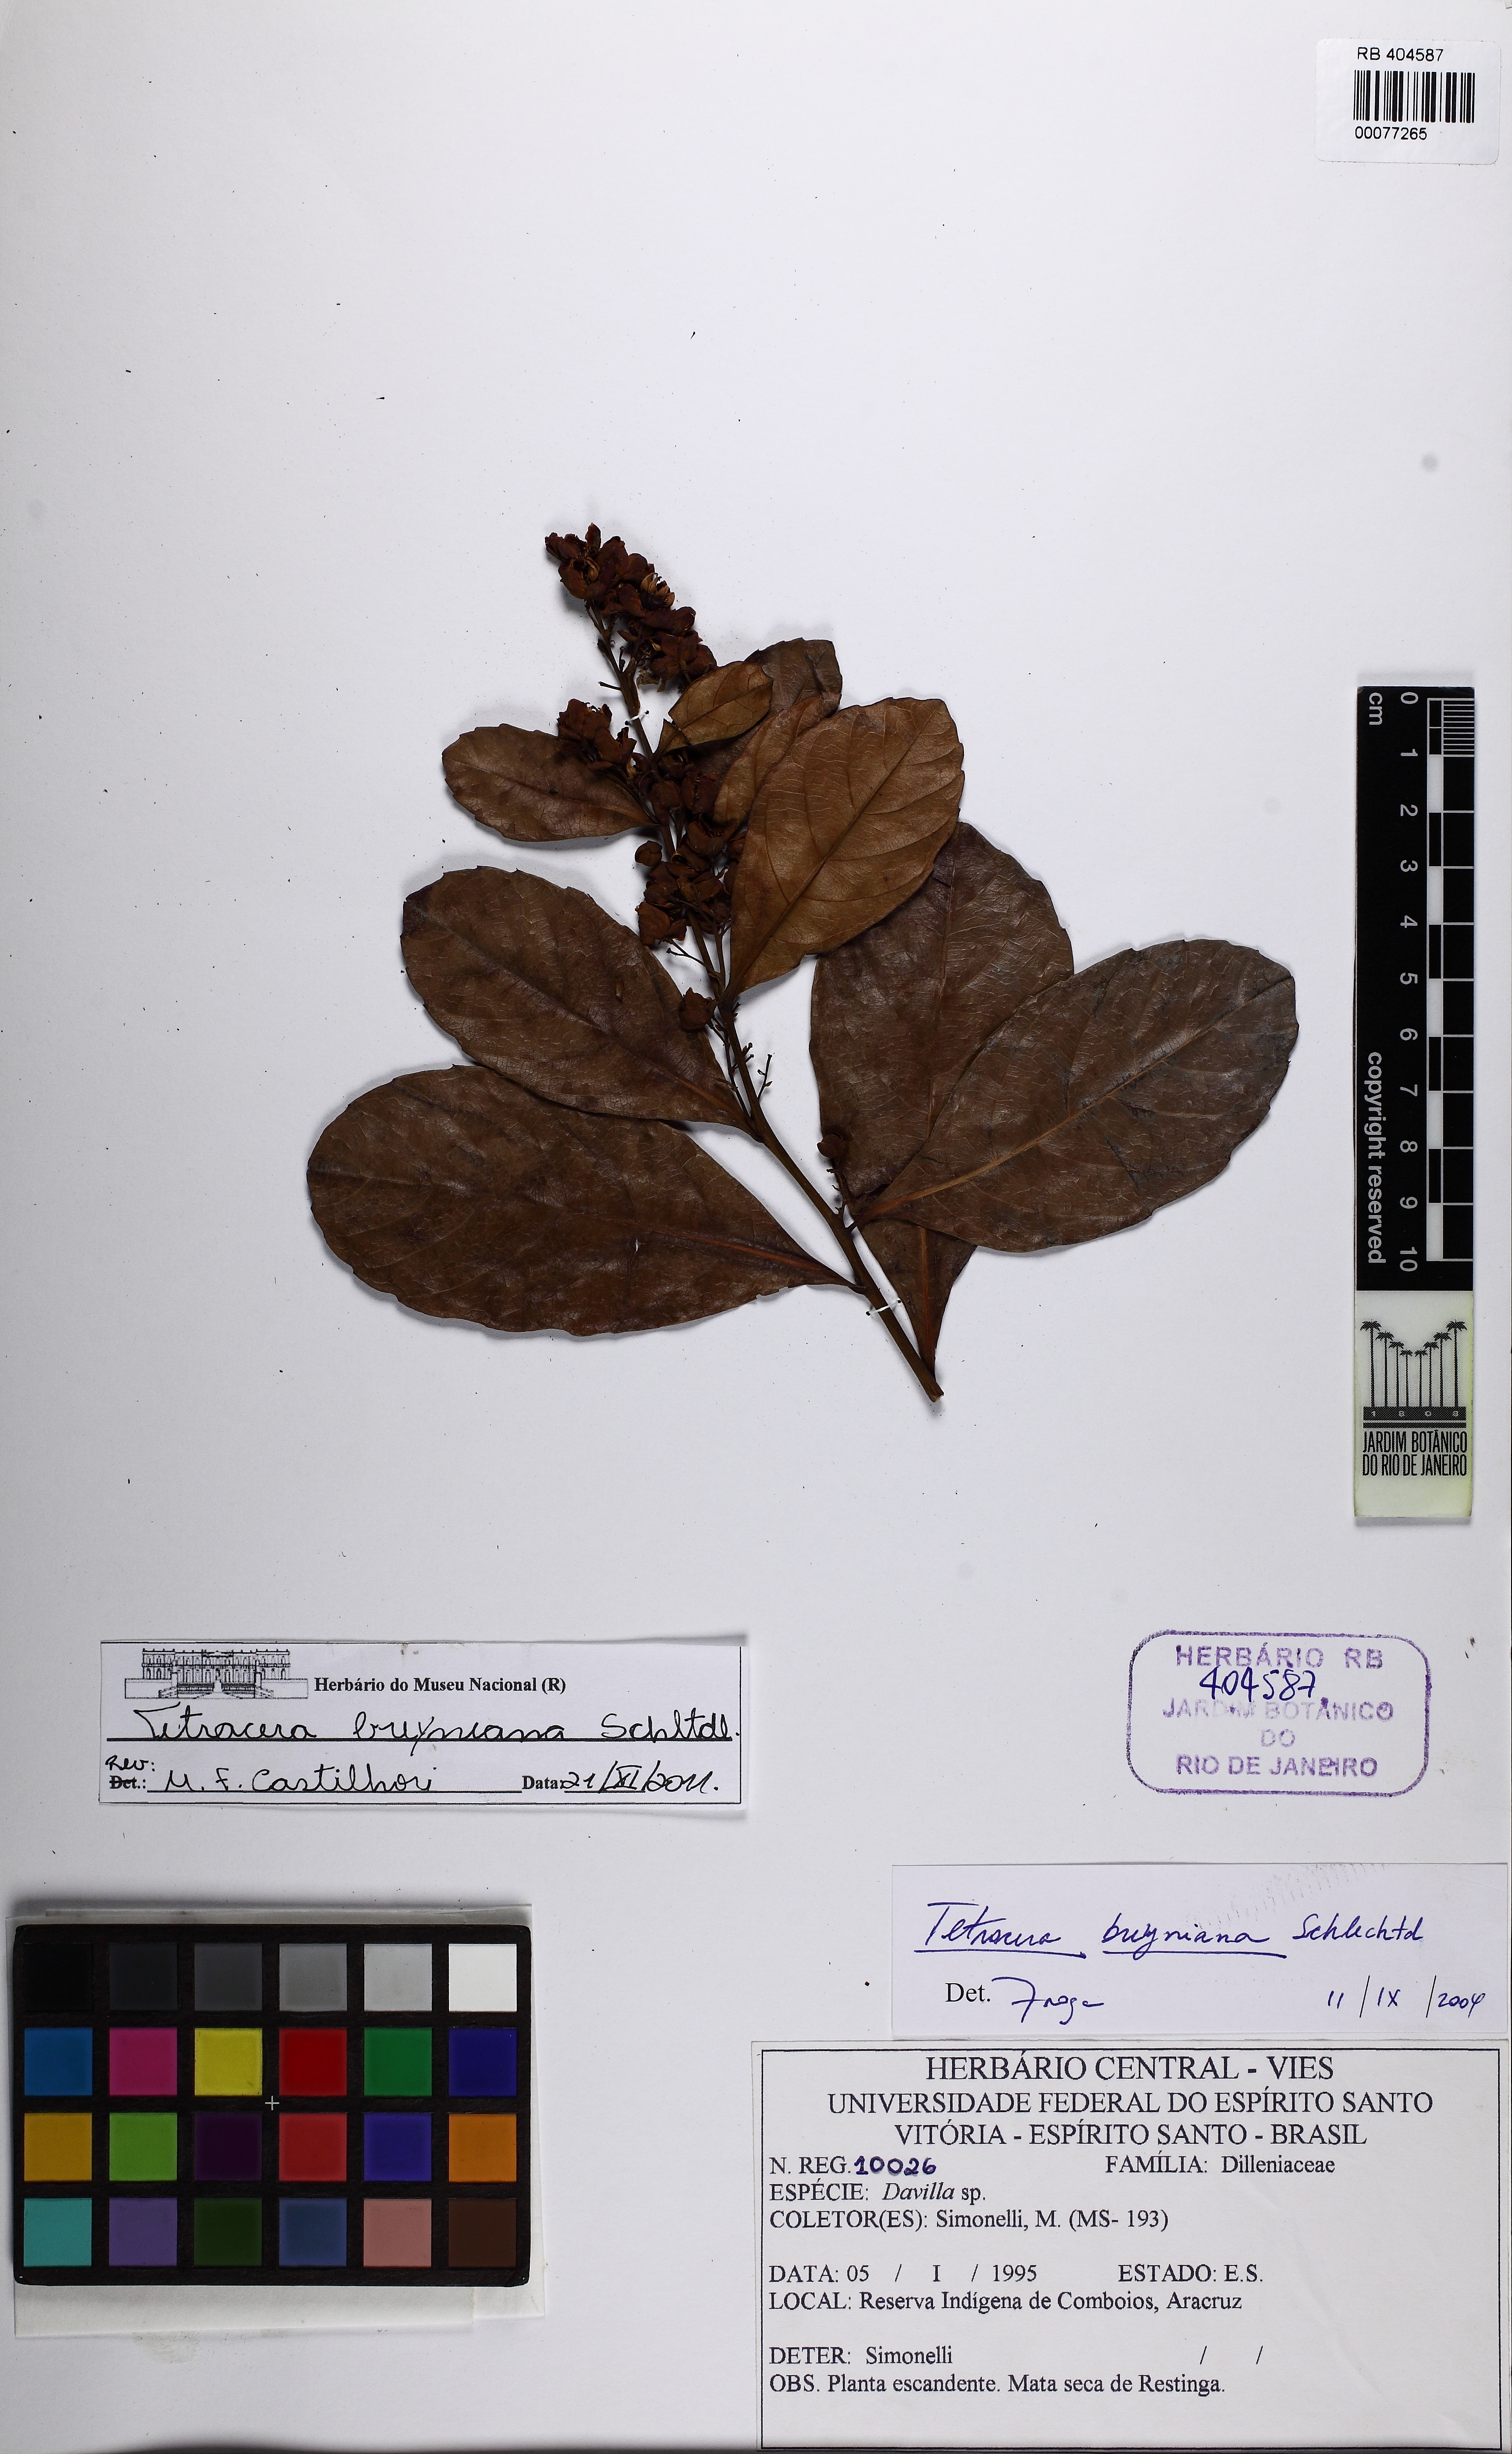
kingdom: Plantae
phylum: Tracheophyta
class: Magnoliopsida
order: Dilleniales
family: Dilleniaceae
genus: Tetracera
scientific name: Tetracera breyniana
